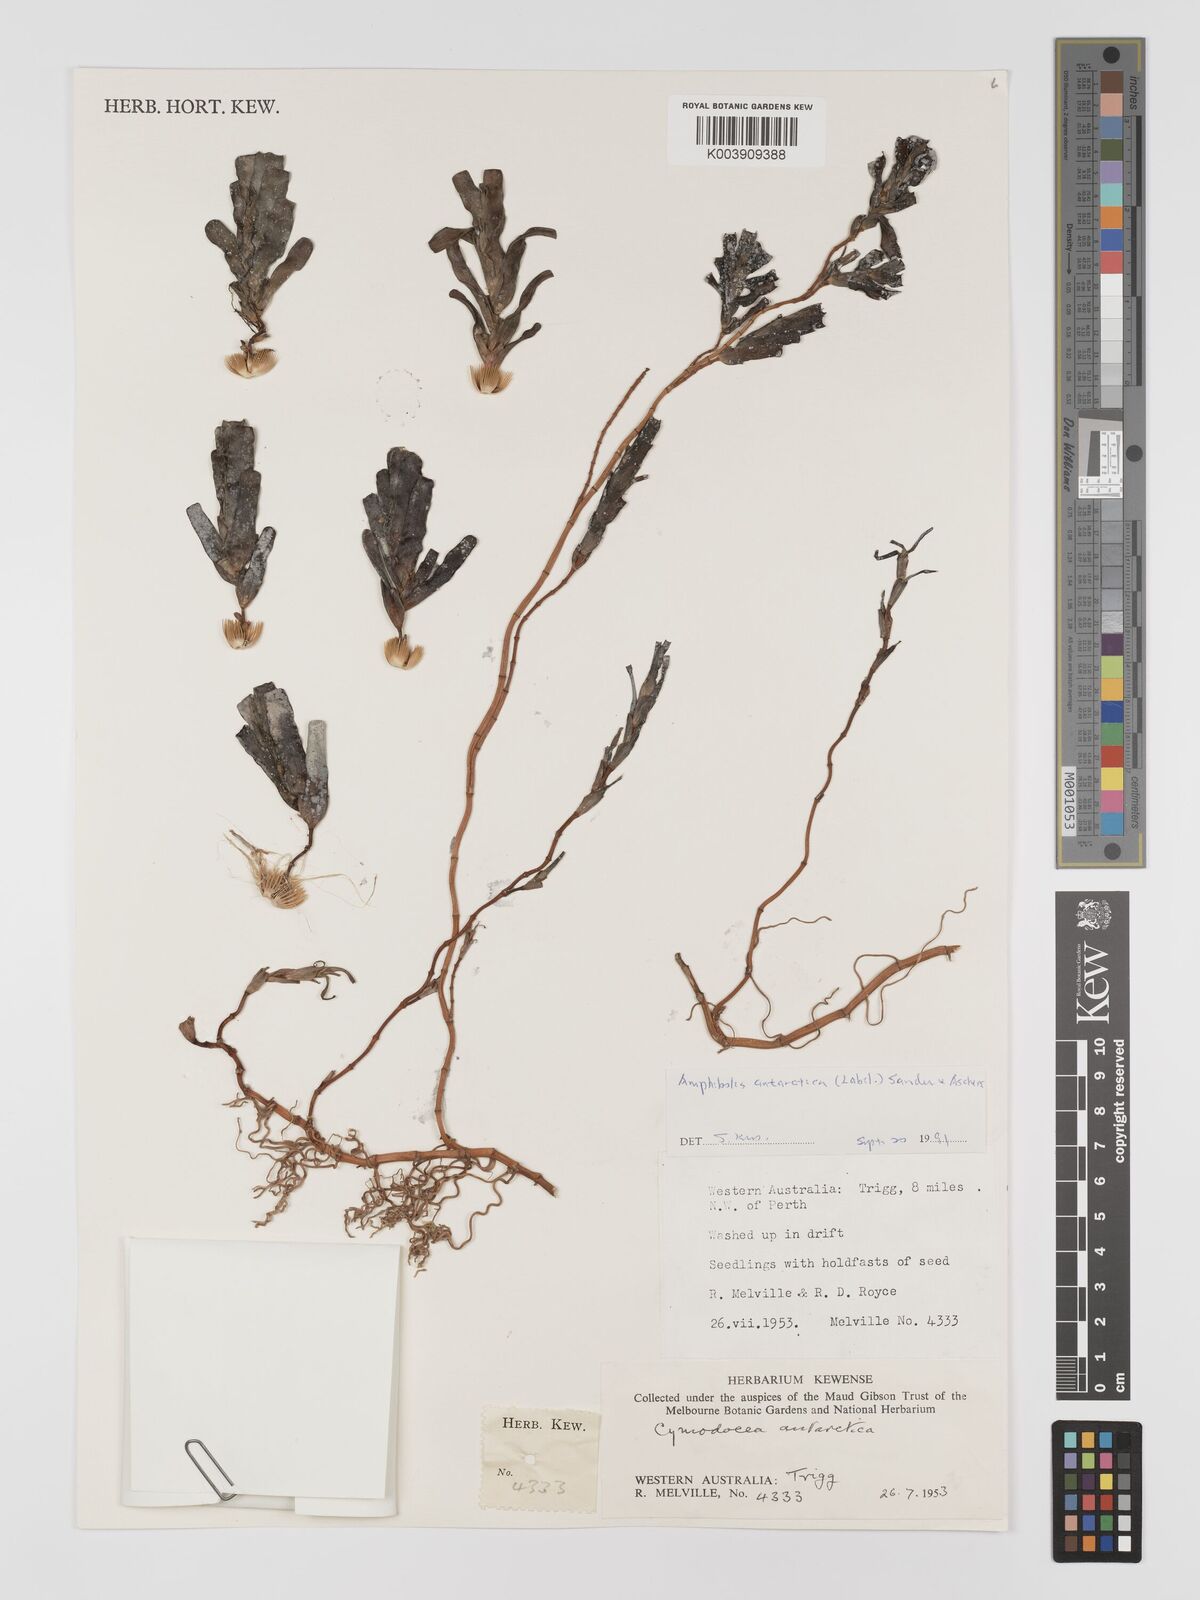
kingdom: Plantae
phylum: Tracheophyta
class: Liliopsida
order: Alismatales
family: Cymodoceaceae
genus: Amphibolis
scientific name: Amphibolis antarctica
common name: Species code: aa
